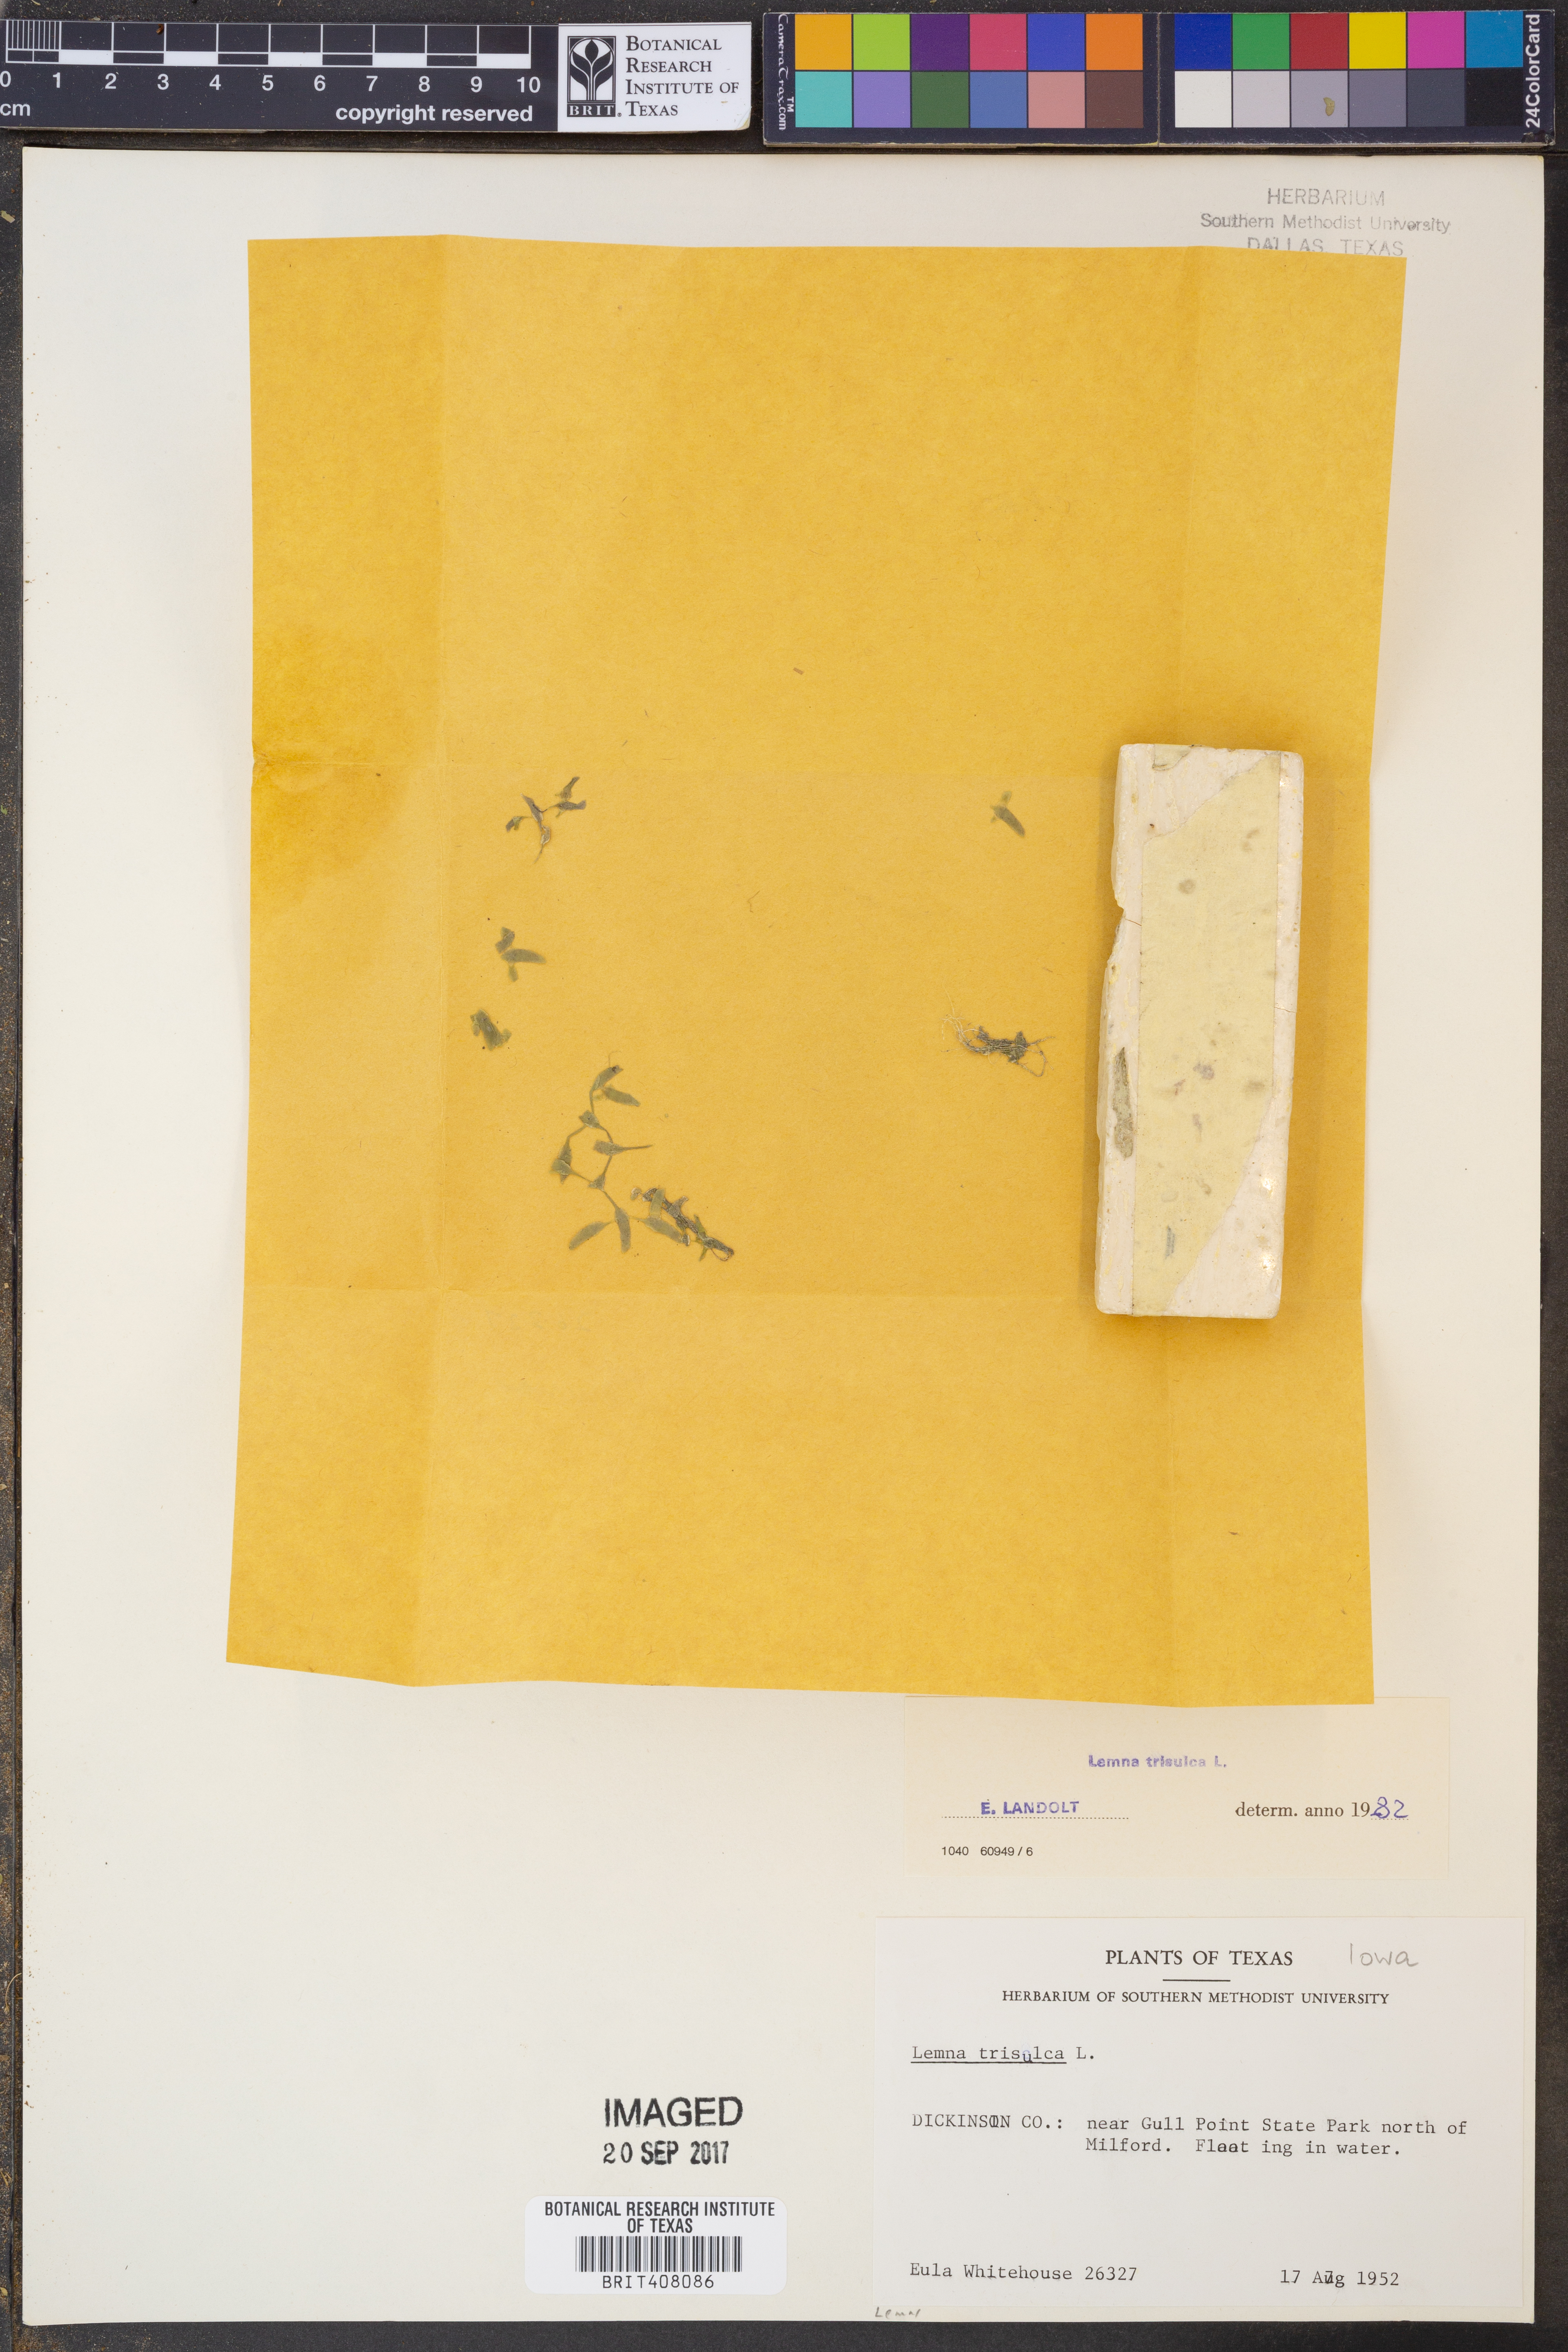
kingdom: Plantae
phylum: Tracheophyta
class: Liliopsida
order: Alismatales
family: Araceae
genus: Lemna
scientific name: Lemna trisulca
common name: Ivy-leaved duckweed
